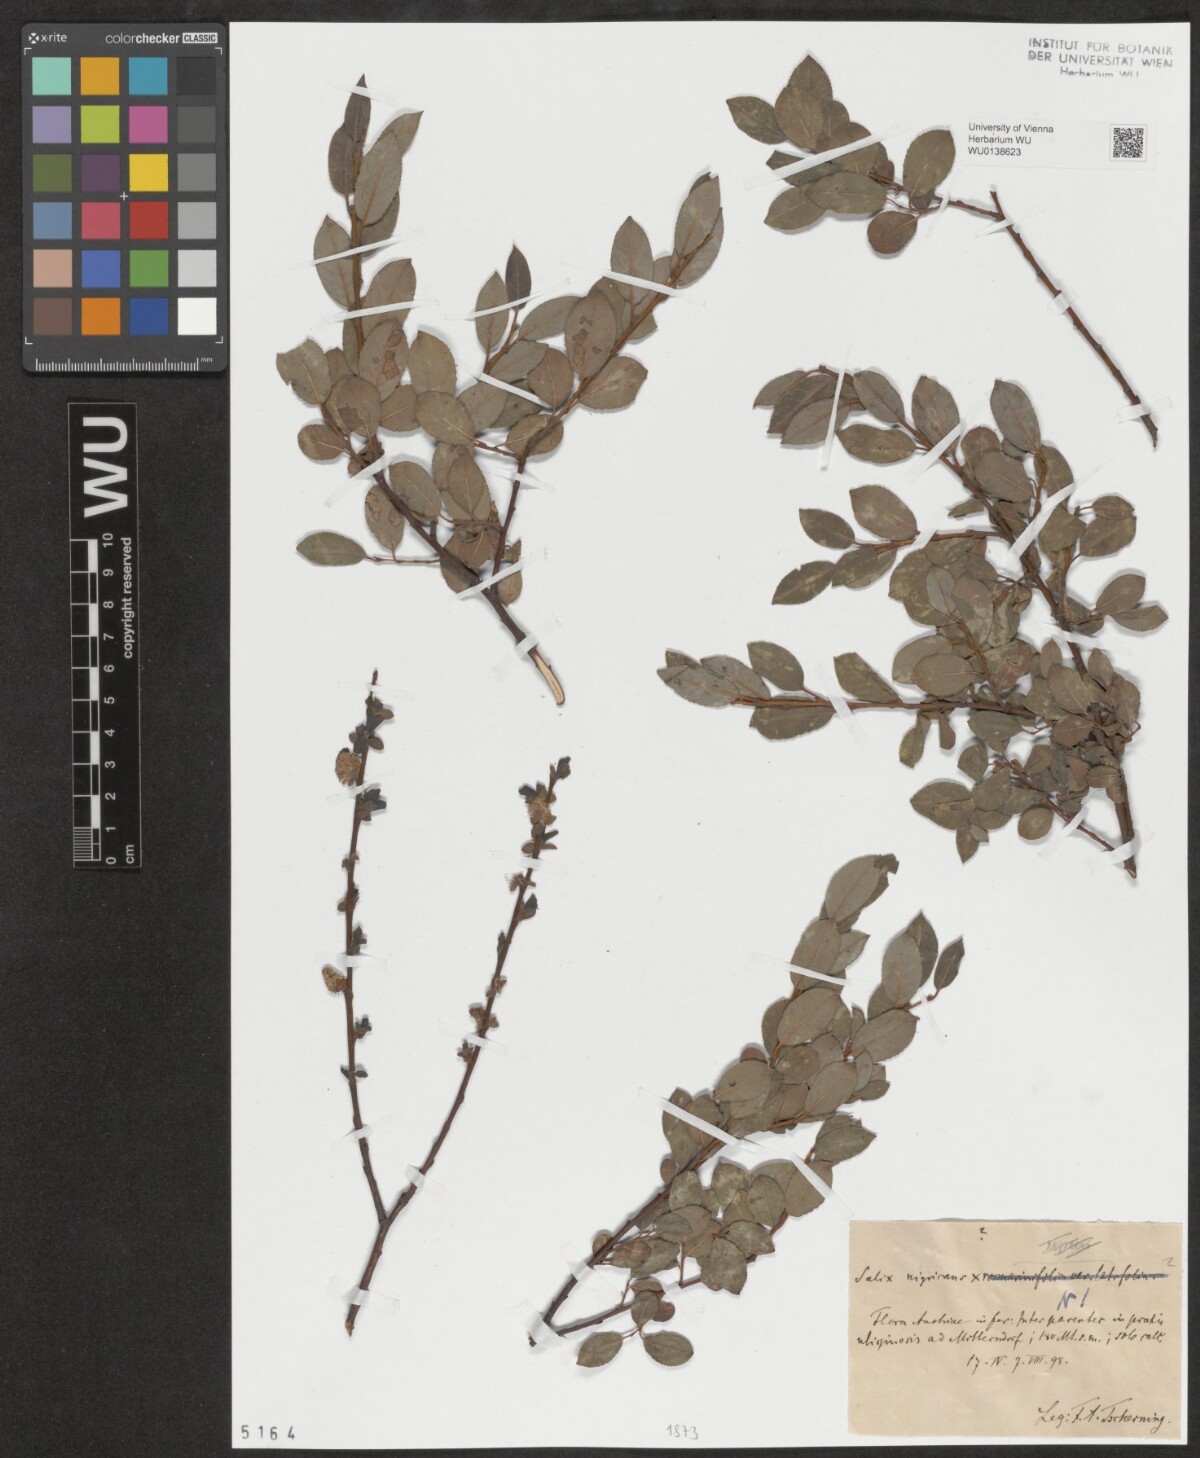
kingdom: Plantae
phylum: Tracheophyta
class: Magnoliopsida
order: Malpighiales
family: Salicaceae
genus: Salix
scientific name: Salix myrsinifolia
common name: Dark-leaved willow
